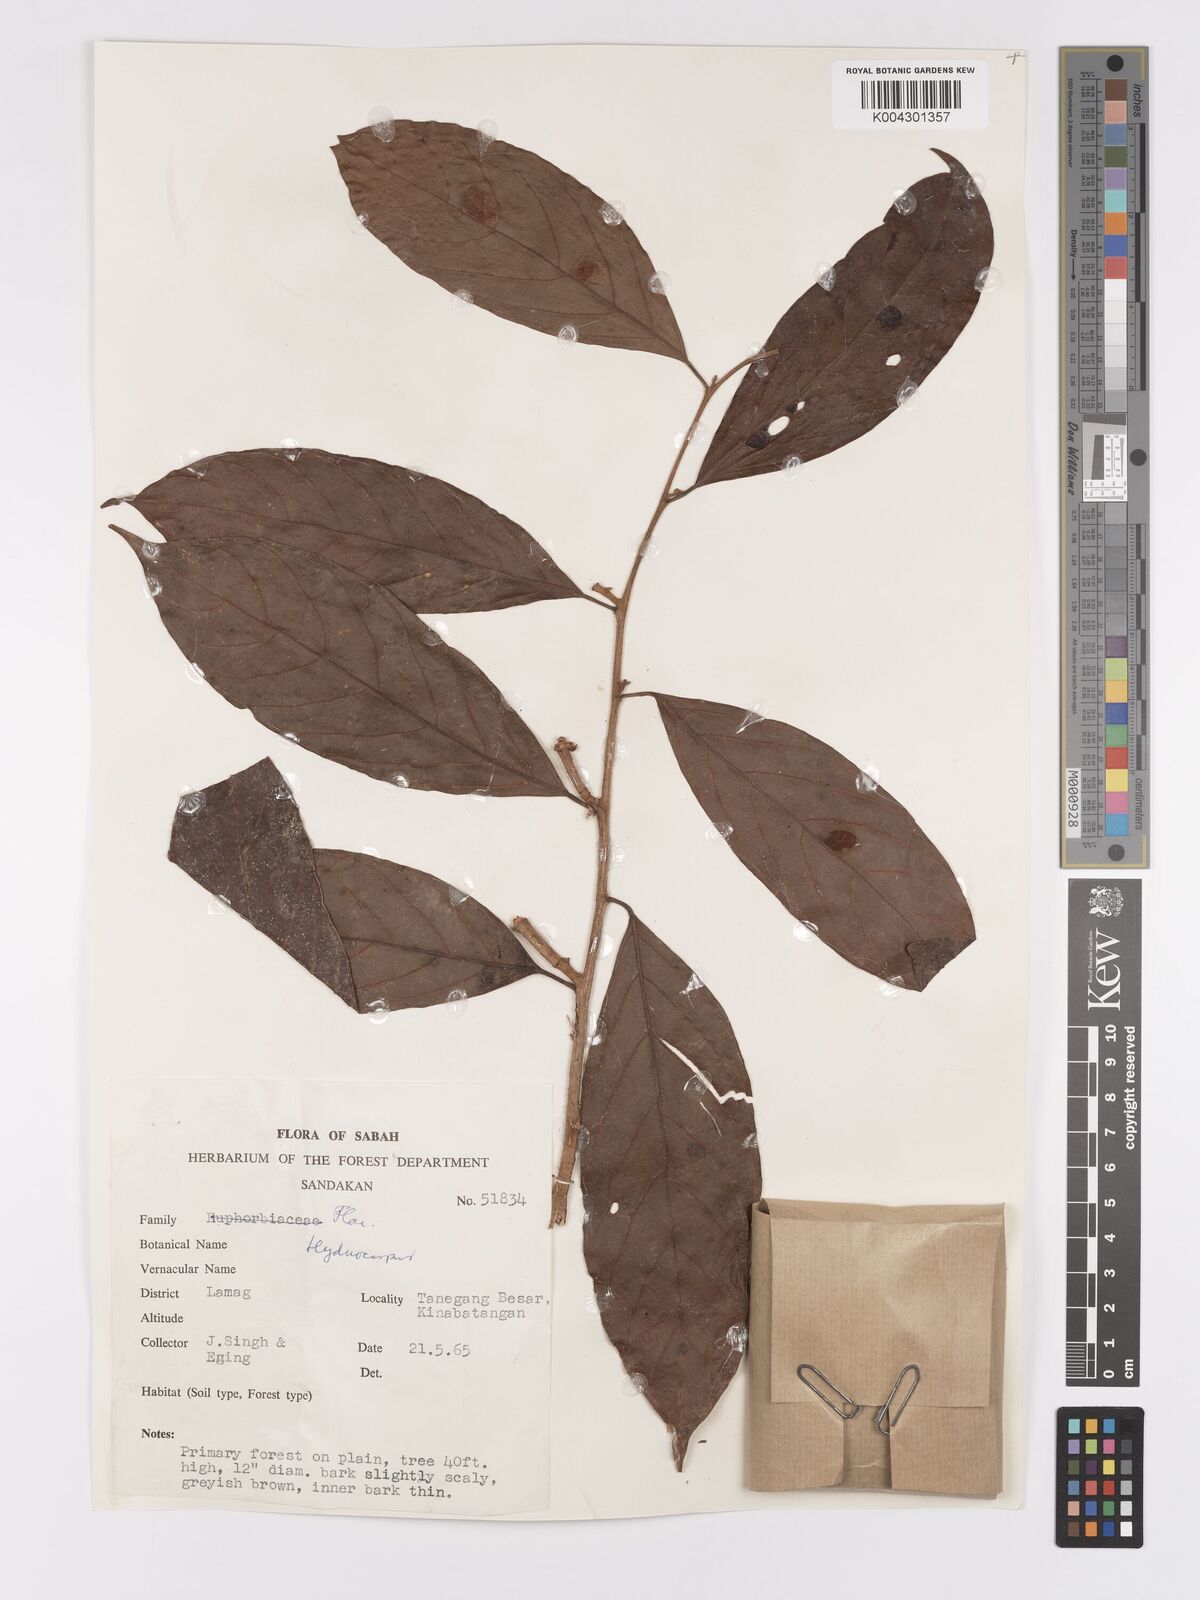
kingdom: Plantae
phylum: Tracheophyta
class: Magnoliopsida
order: Malpighiales
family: Achariaceae
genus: Hydnocarpus
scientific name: Hydnocarpus
